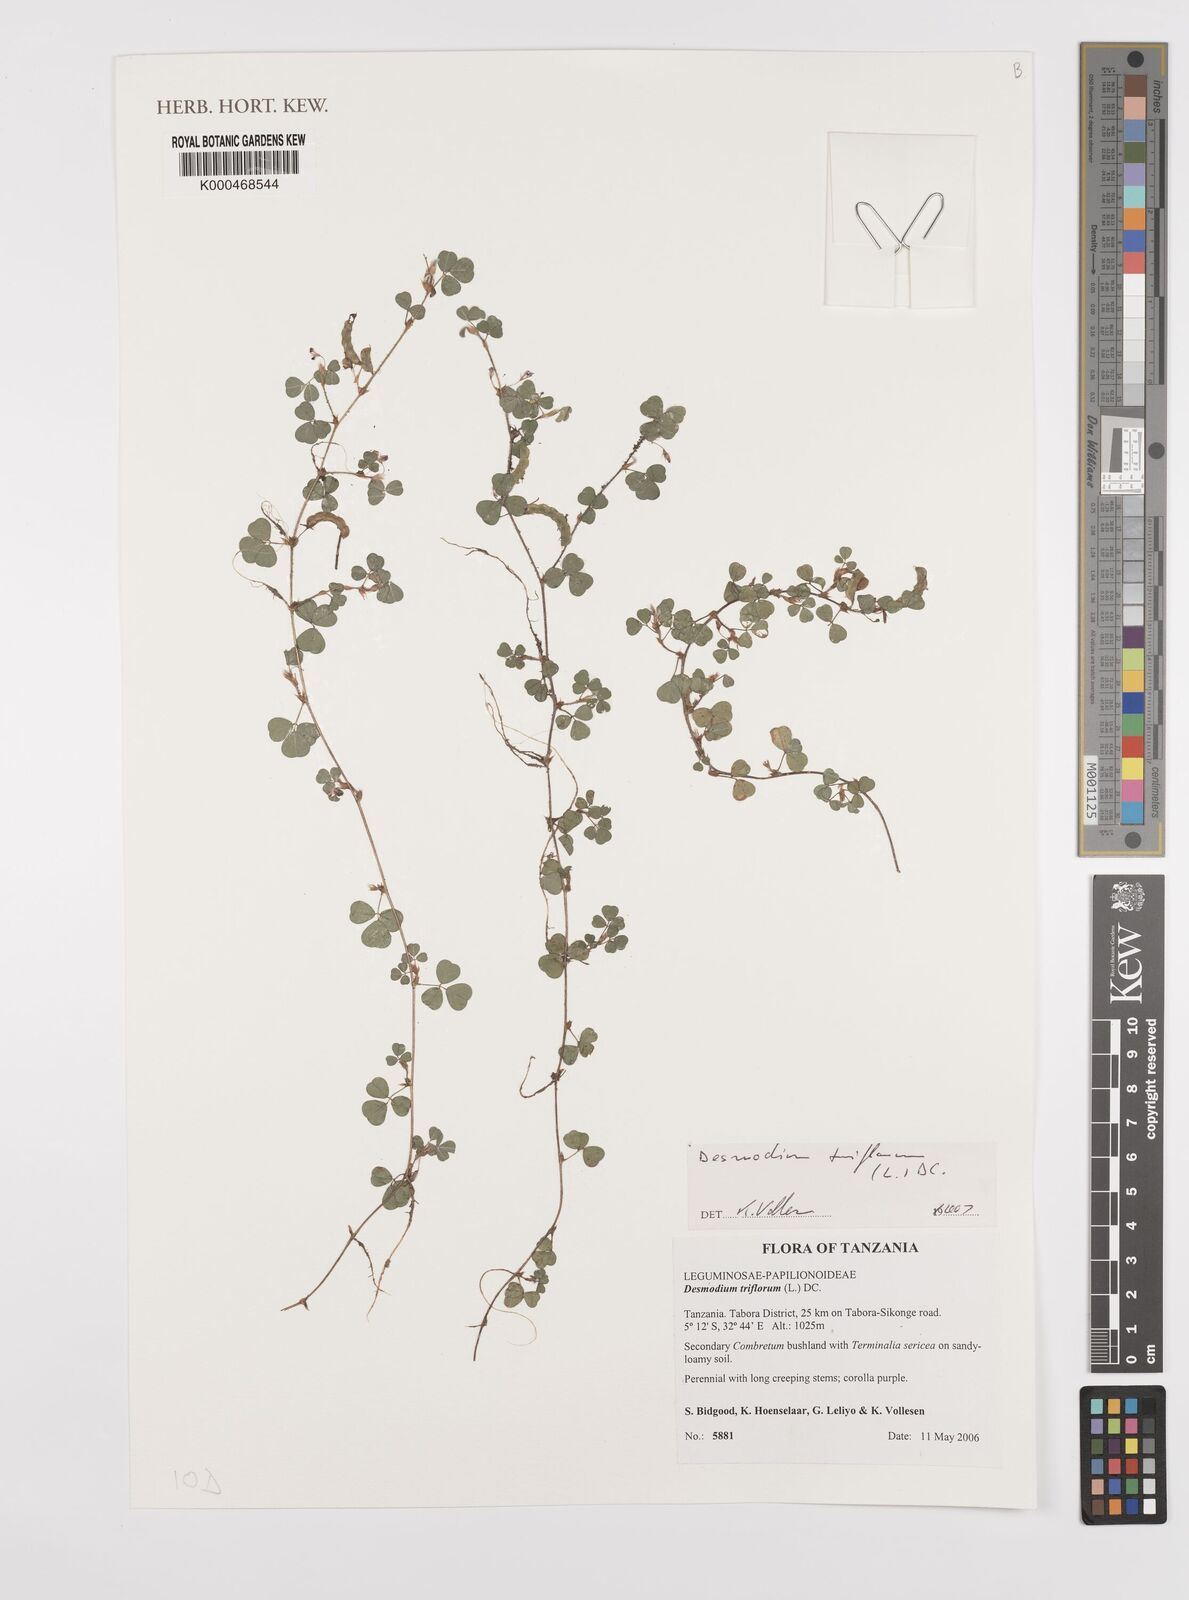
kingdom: Plantae
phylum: Tracheophyta
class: Magnoliopsida
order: Fabales
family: Fabaceae
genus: Grona
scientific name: Grona triflora
